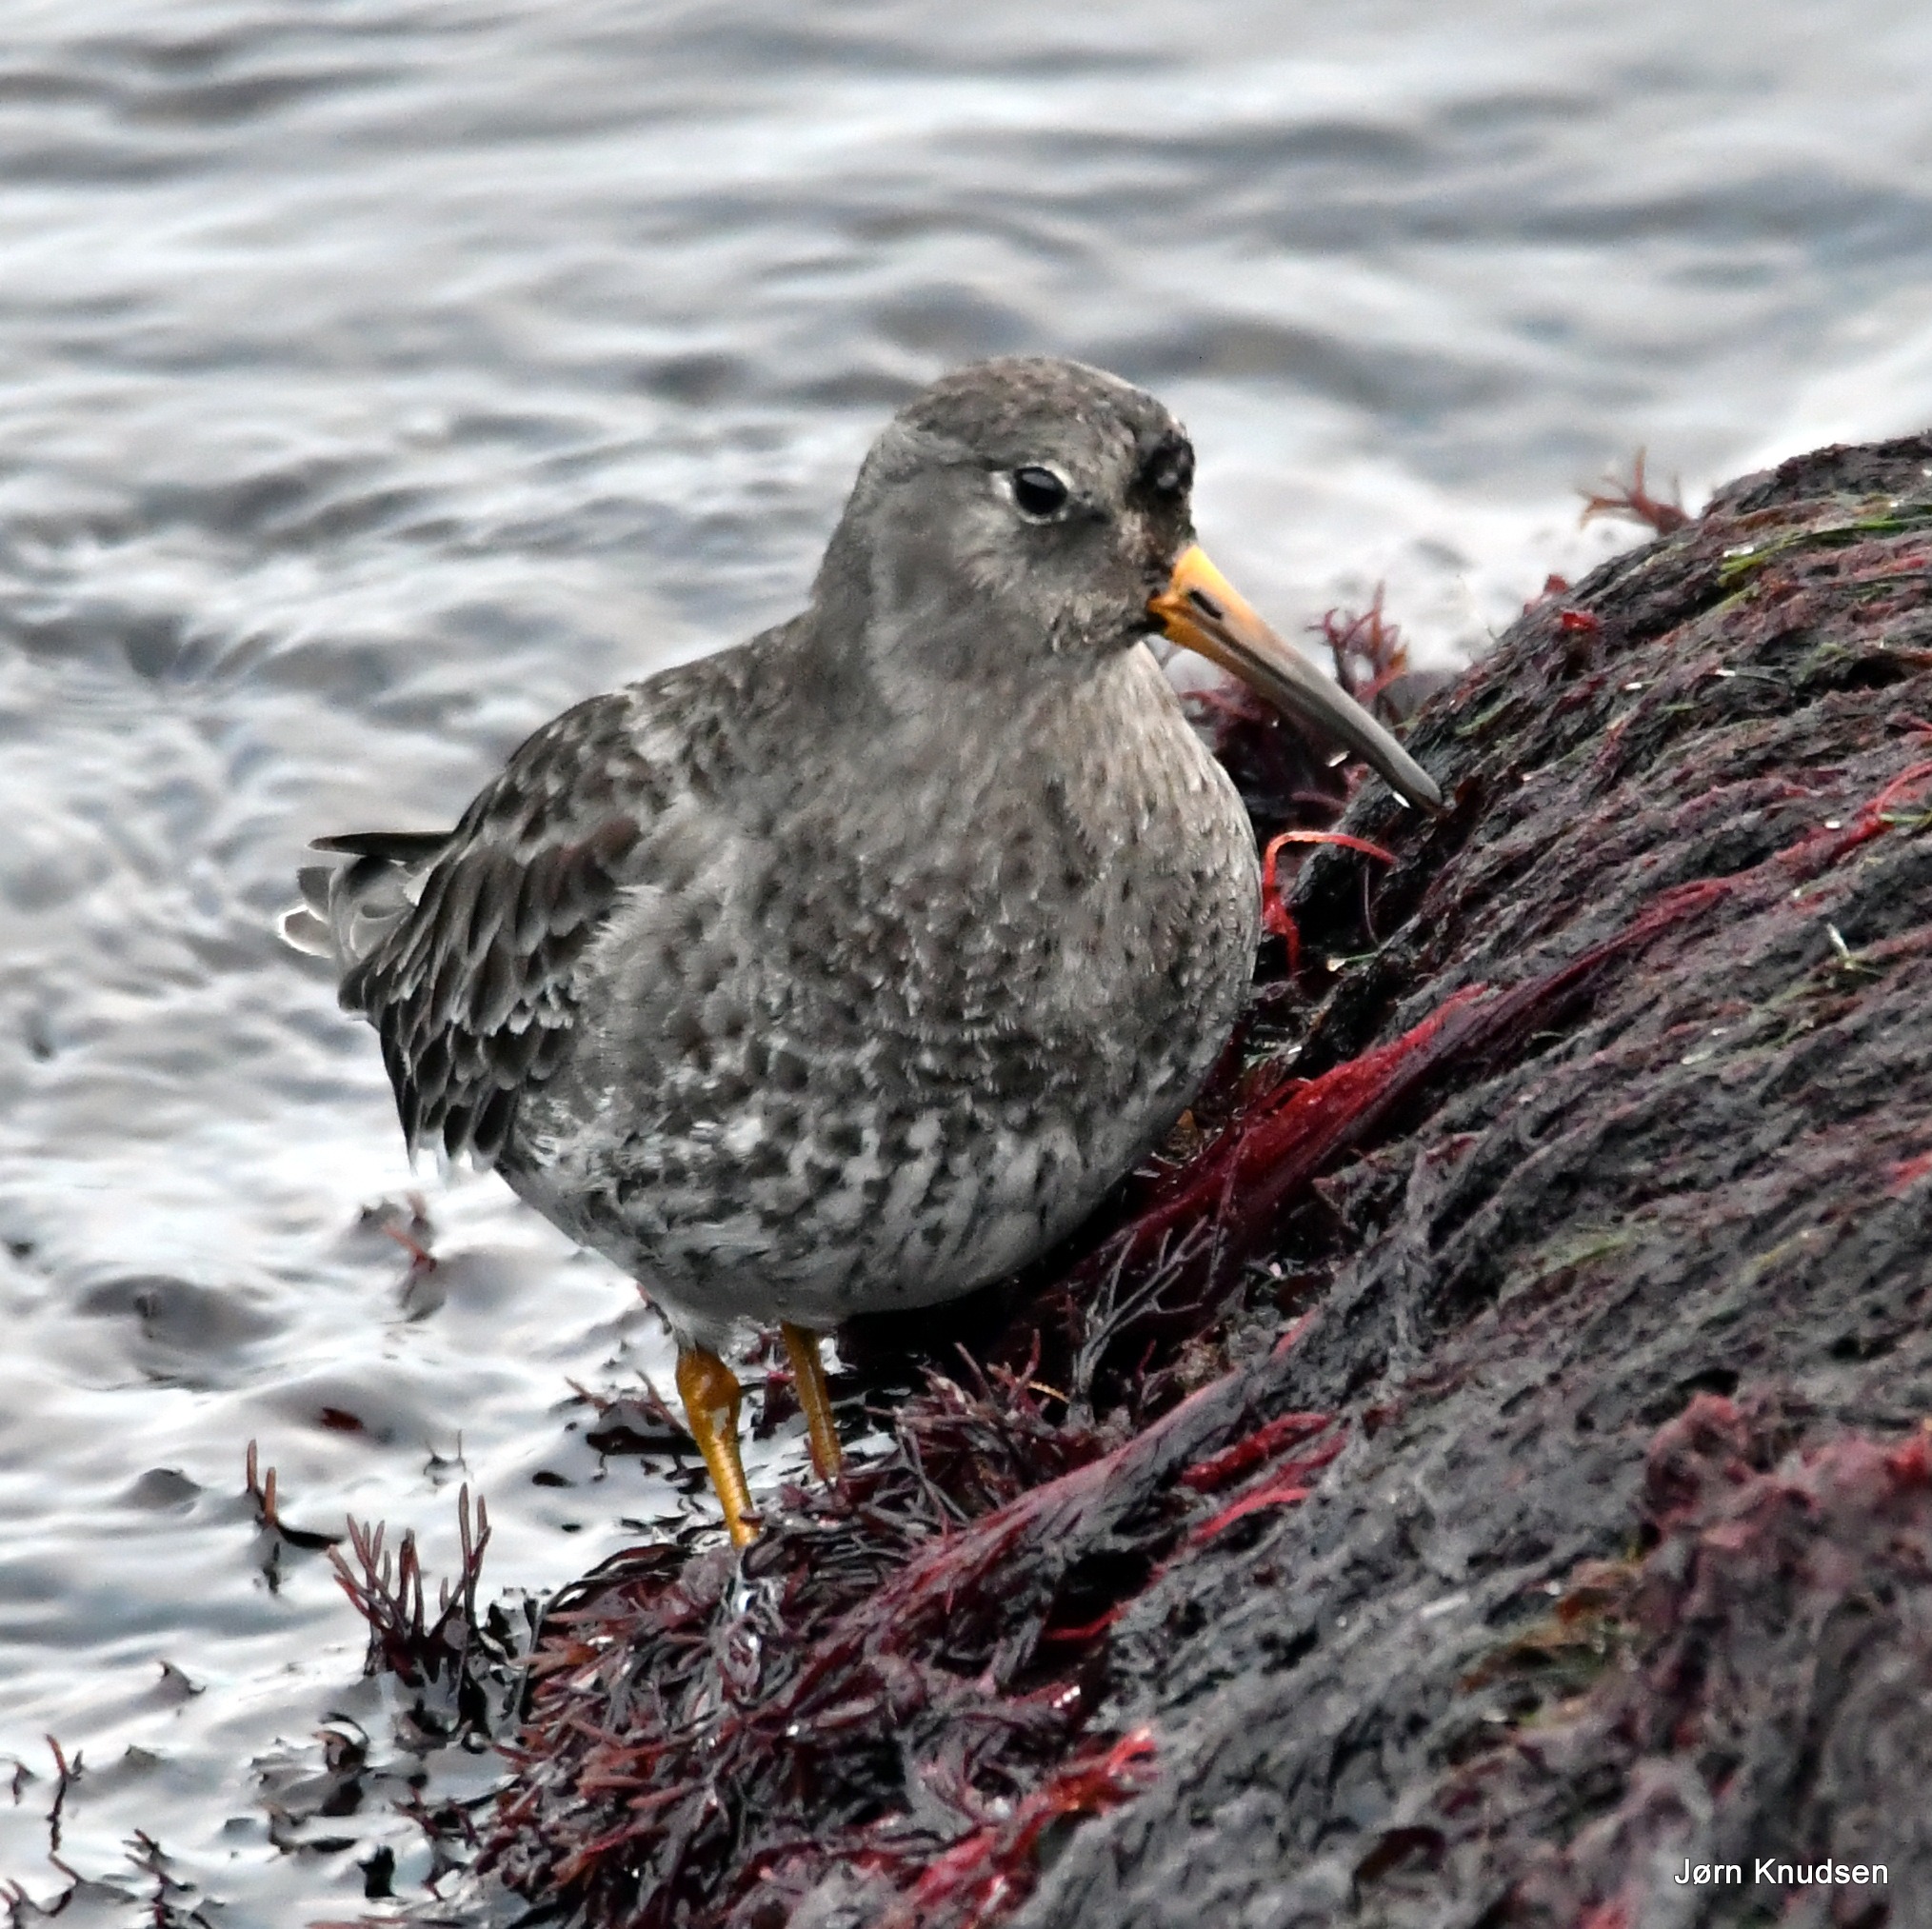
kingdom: Animalia
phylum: Chordata
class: Aves
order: Charadriiformes
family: Scolopacidae
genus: Calidris
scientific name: Calidris maritima
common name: Sortgrå ryle
